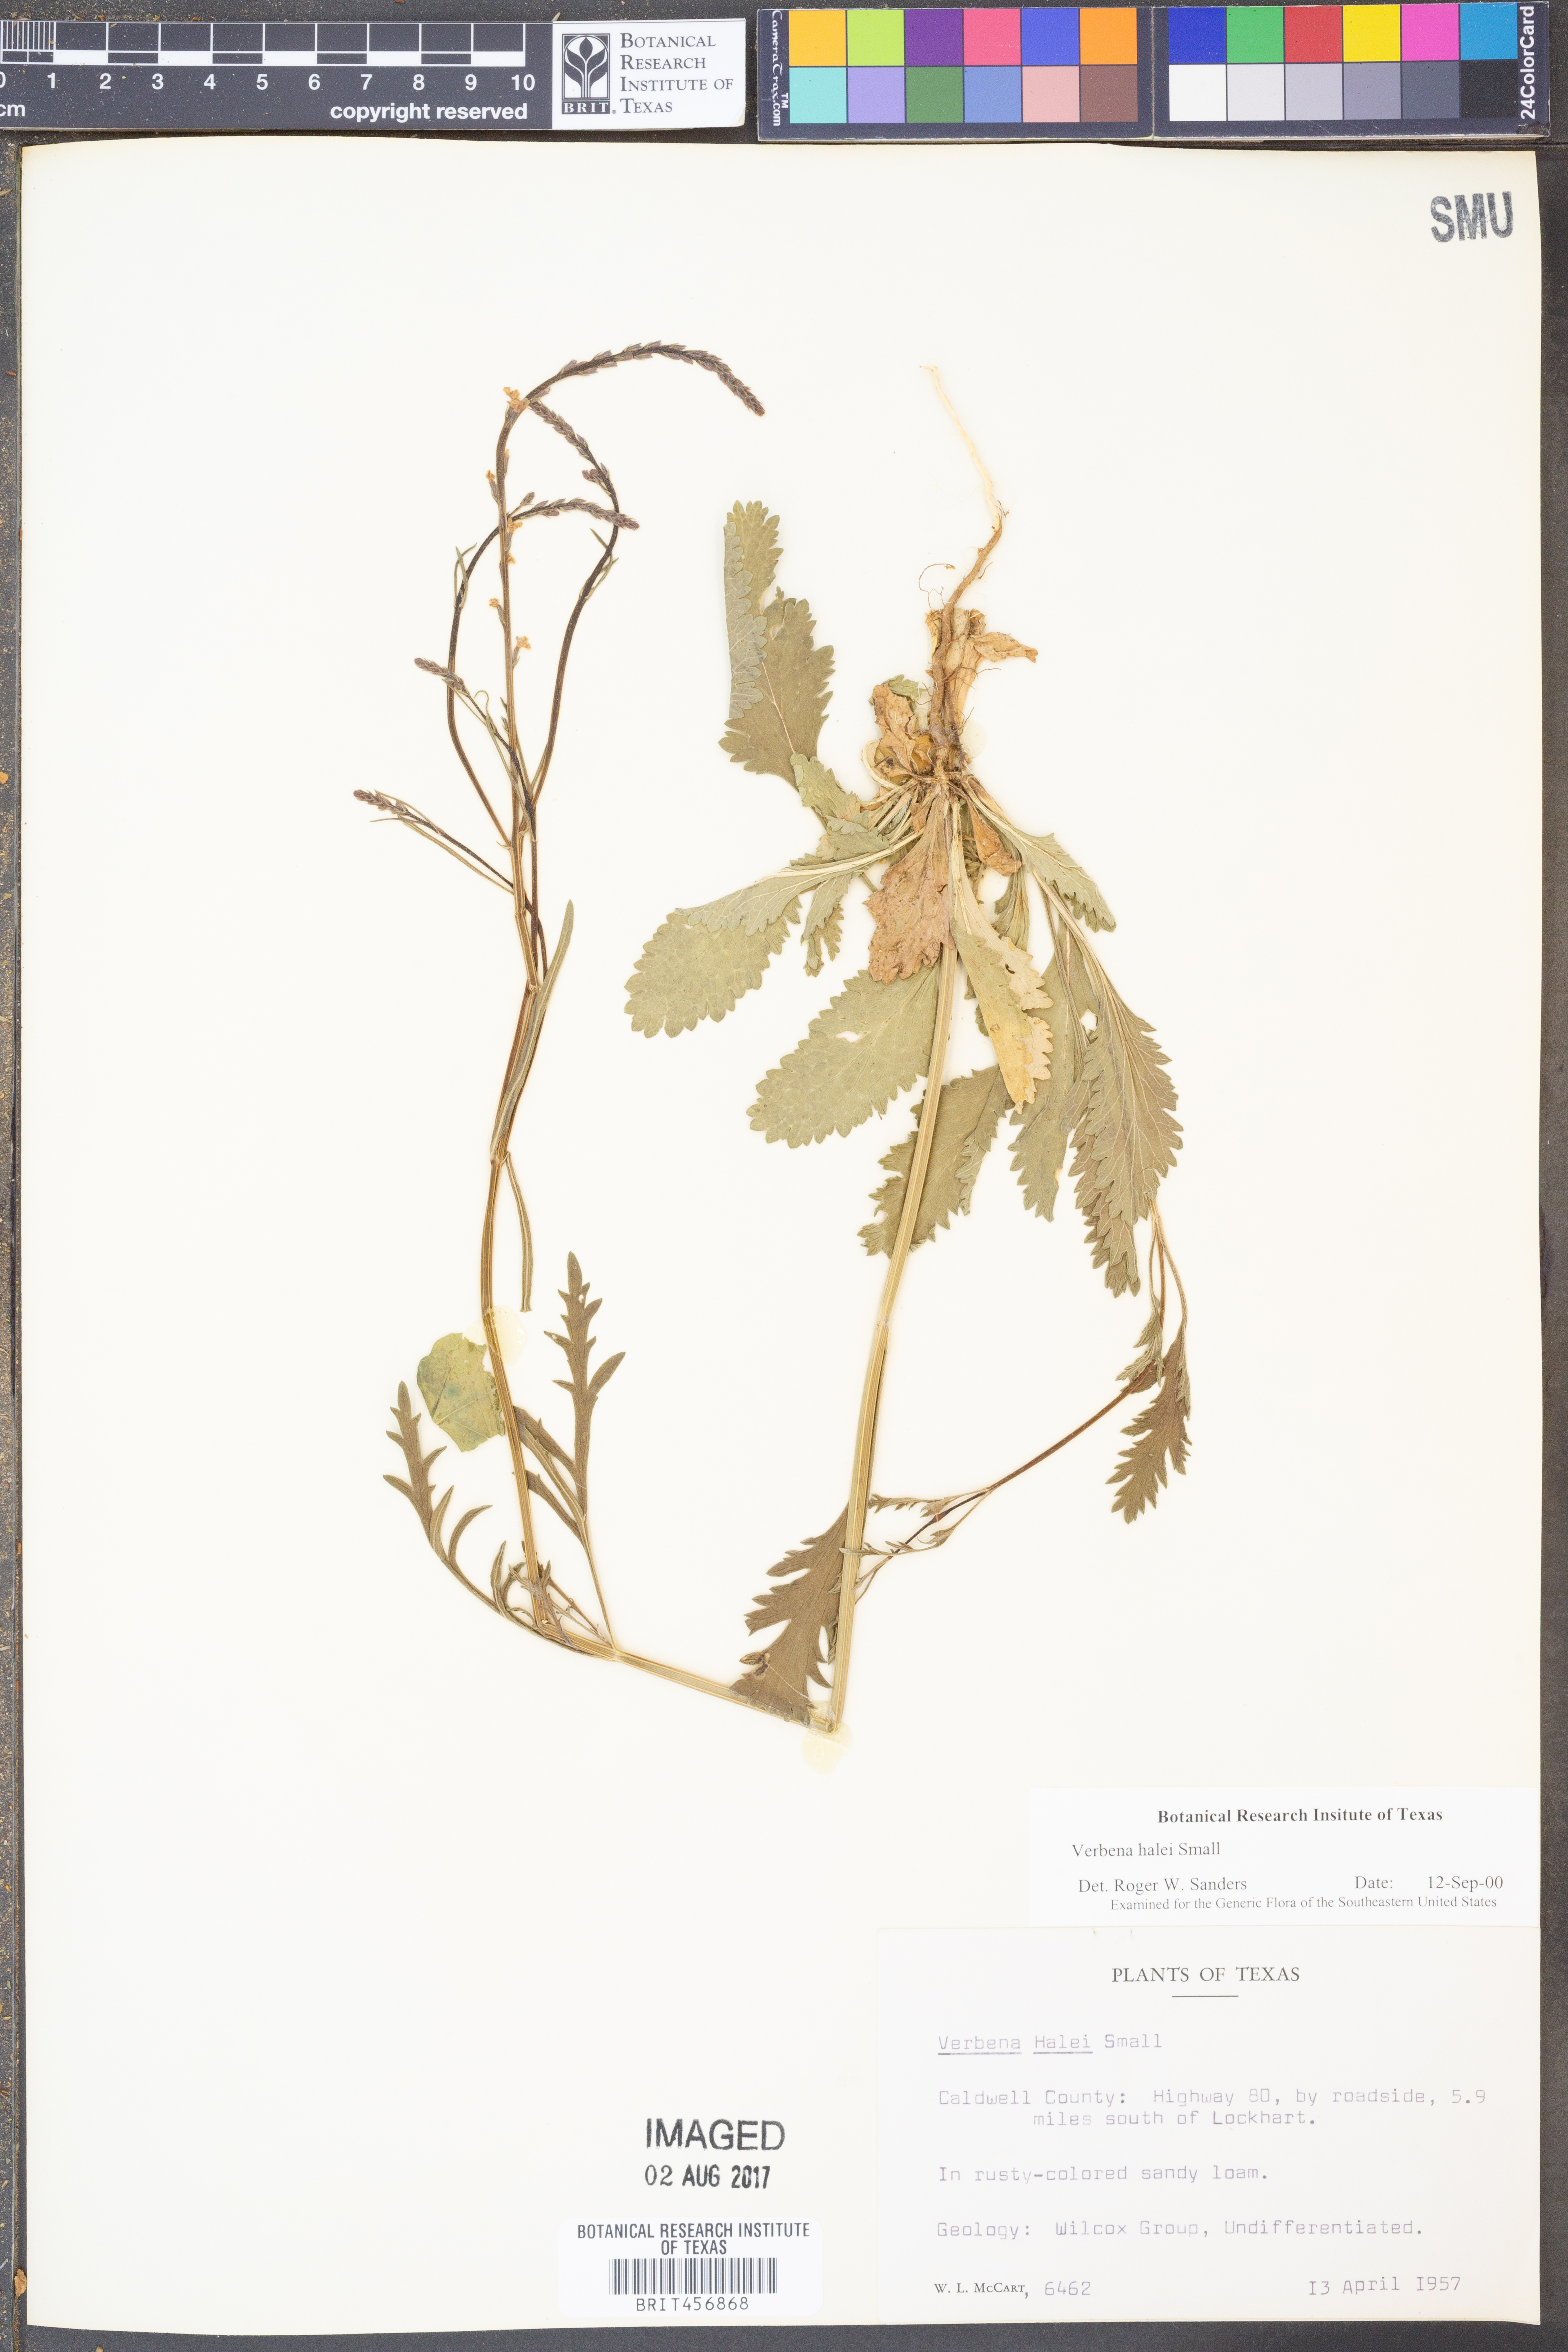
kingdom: Plantae
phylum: Tracheophyta
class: Magnoliopsida
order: Lamiales
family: Verbenaceae
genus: Verbena
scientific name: Verbena halei
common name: Texas vervain
